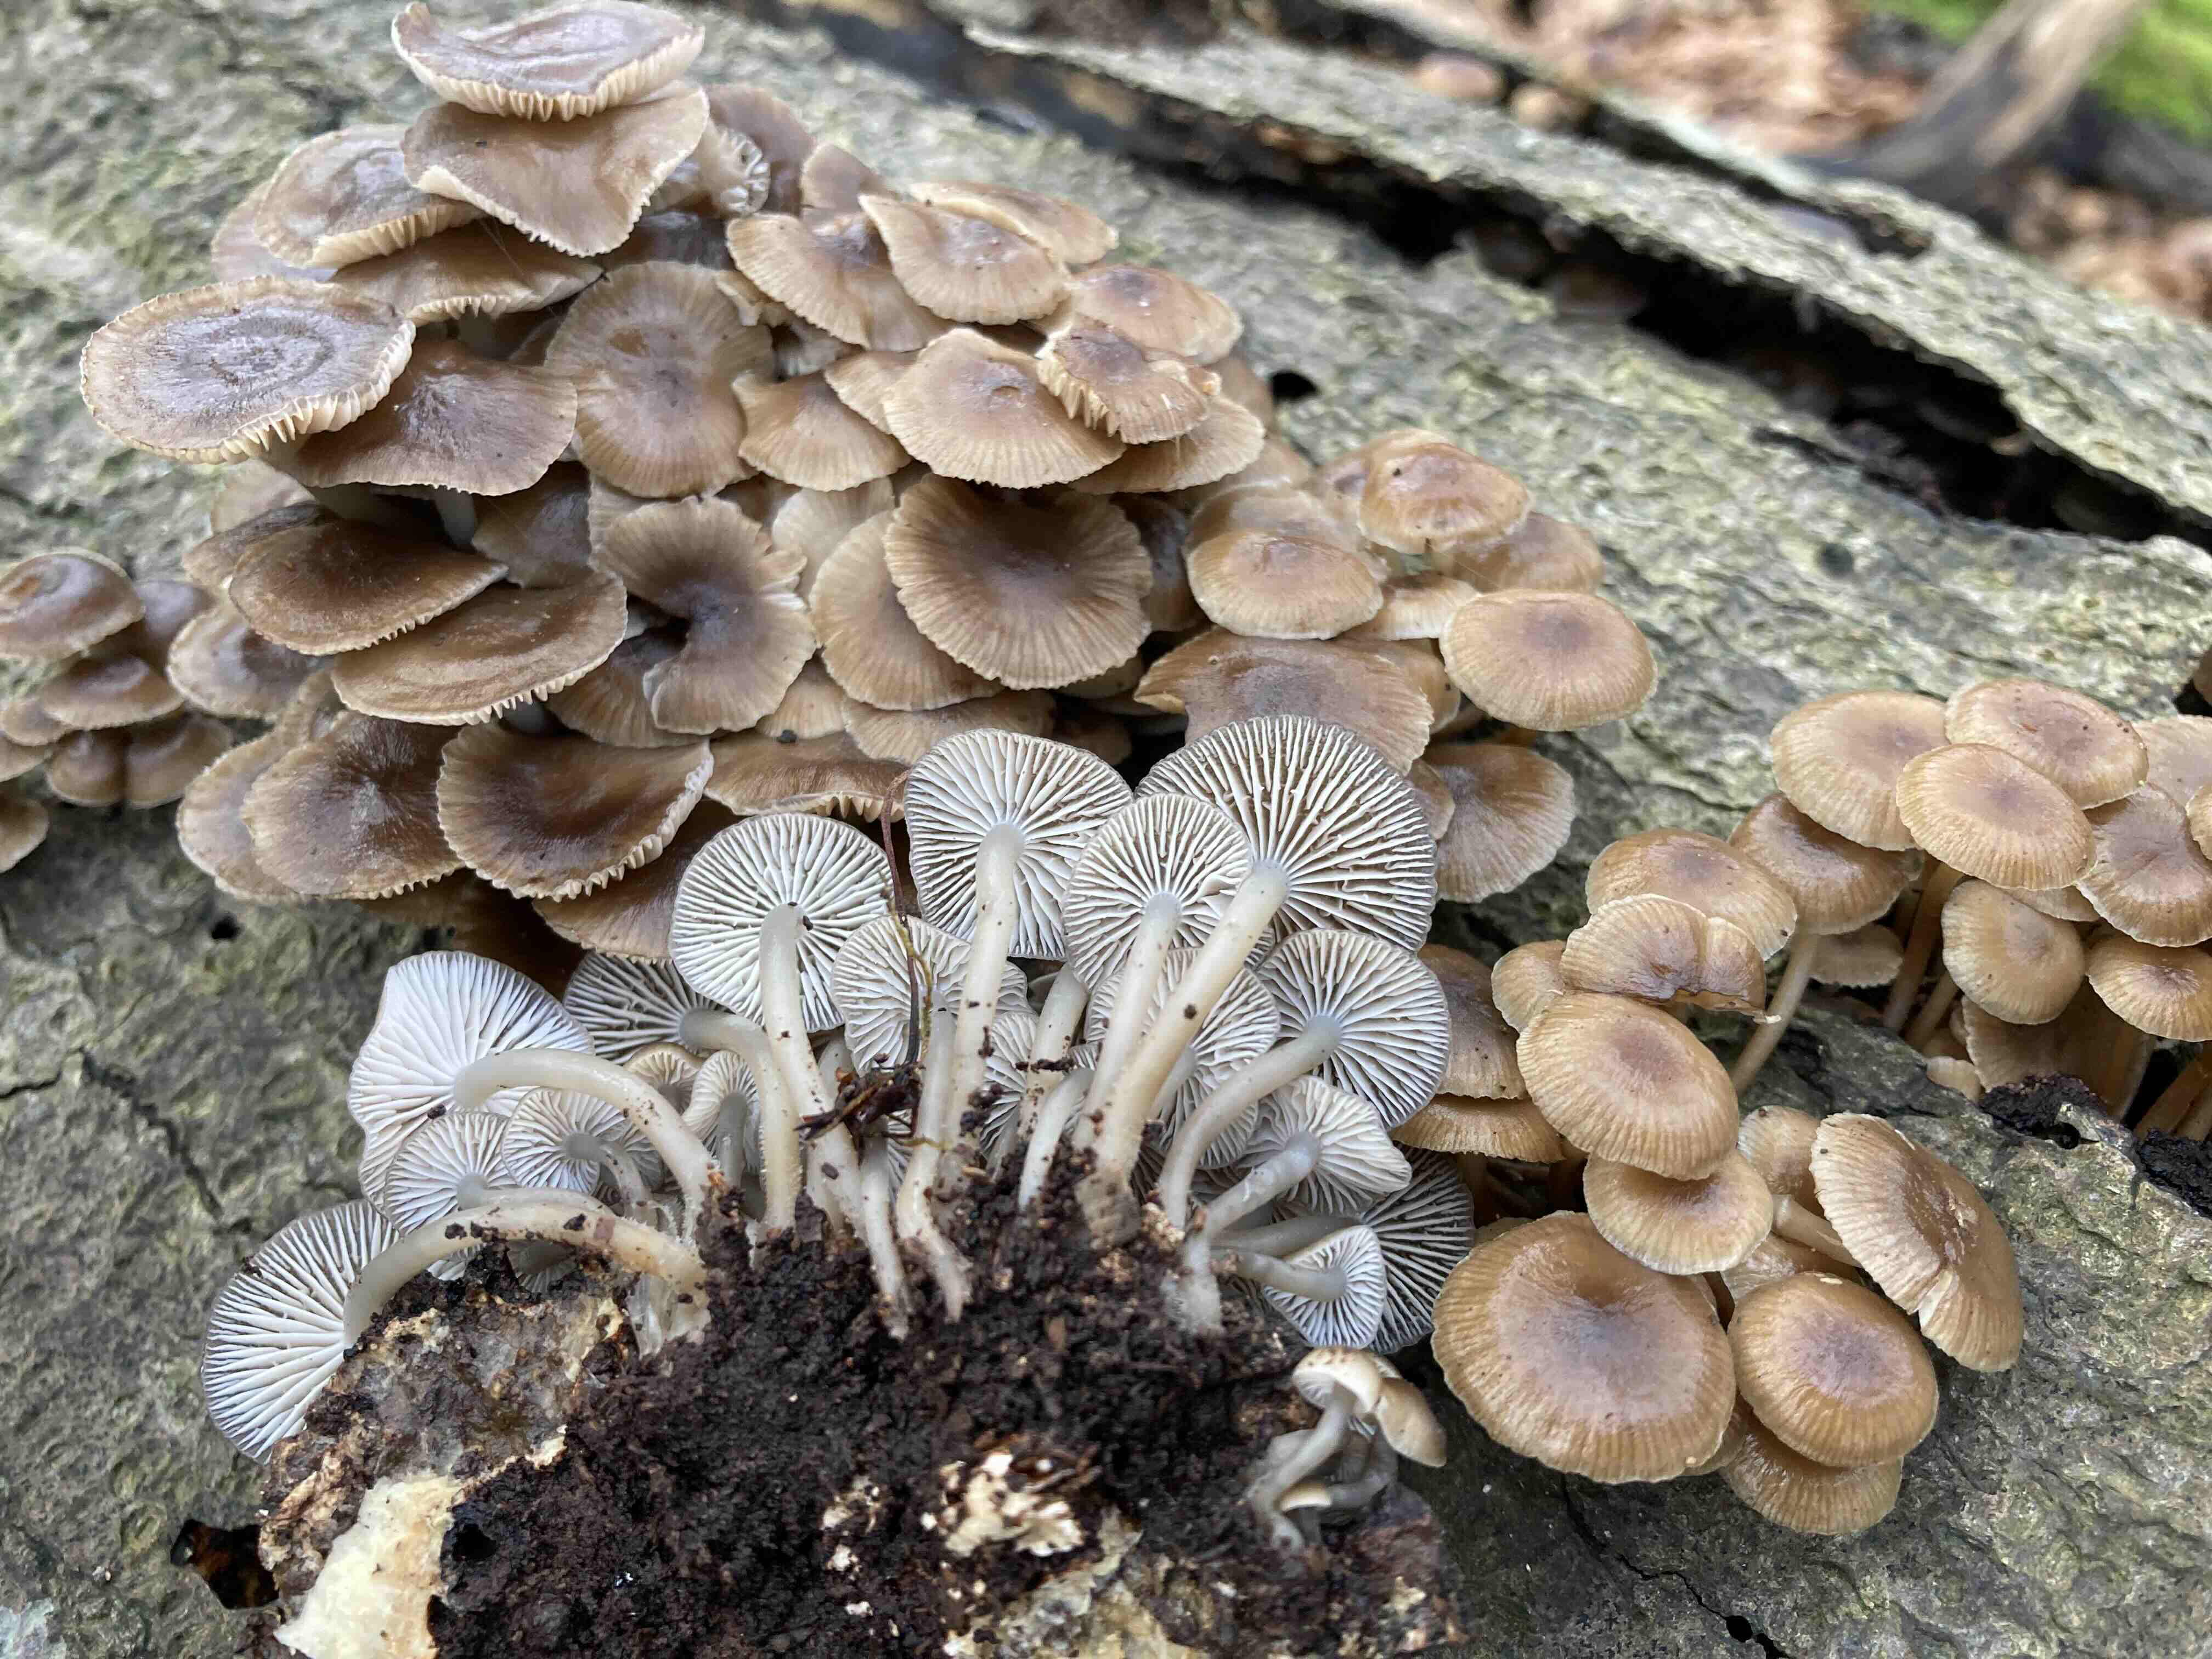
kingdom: Fungi
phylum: Basidiomycota
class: Agaricomycetes
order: Agaricales
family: Mycenaceae
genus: Mycena
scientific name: Mycena tintinnabulum
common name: vinter-huesvamp
